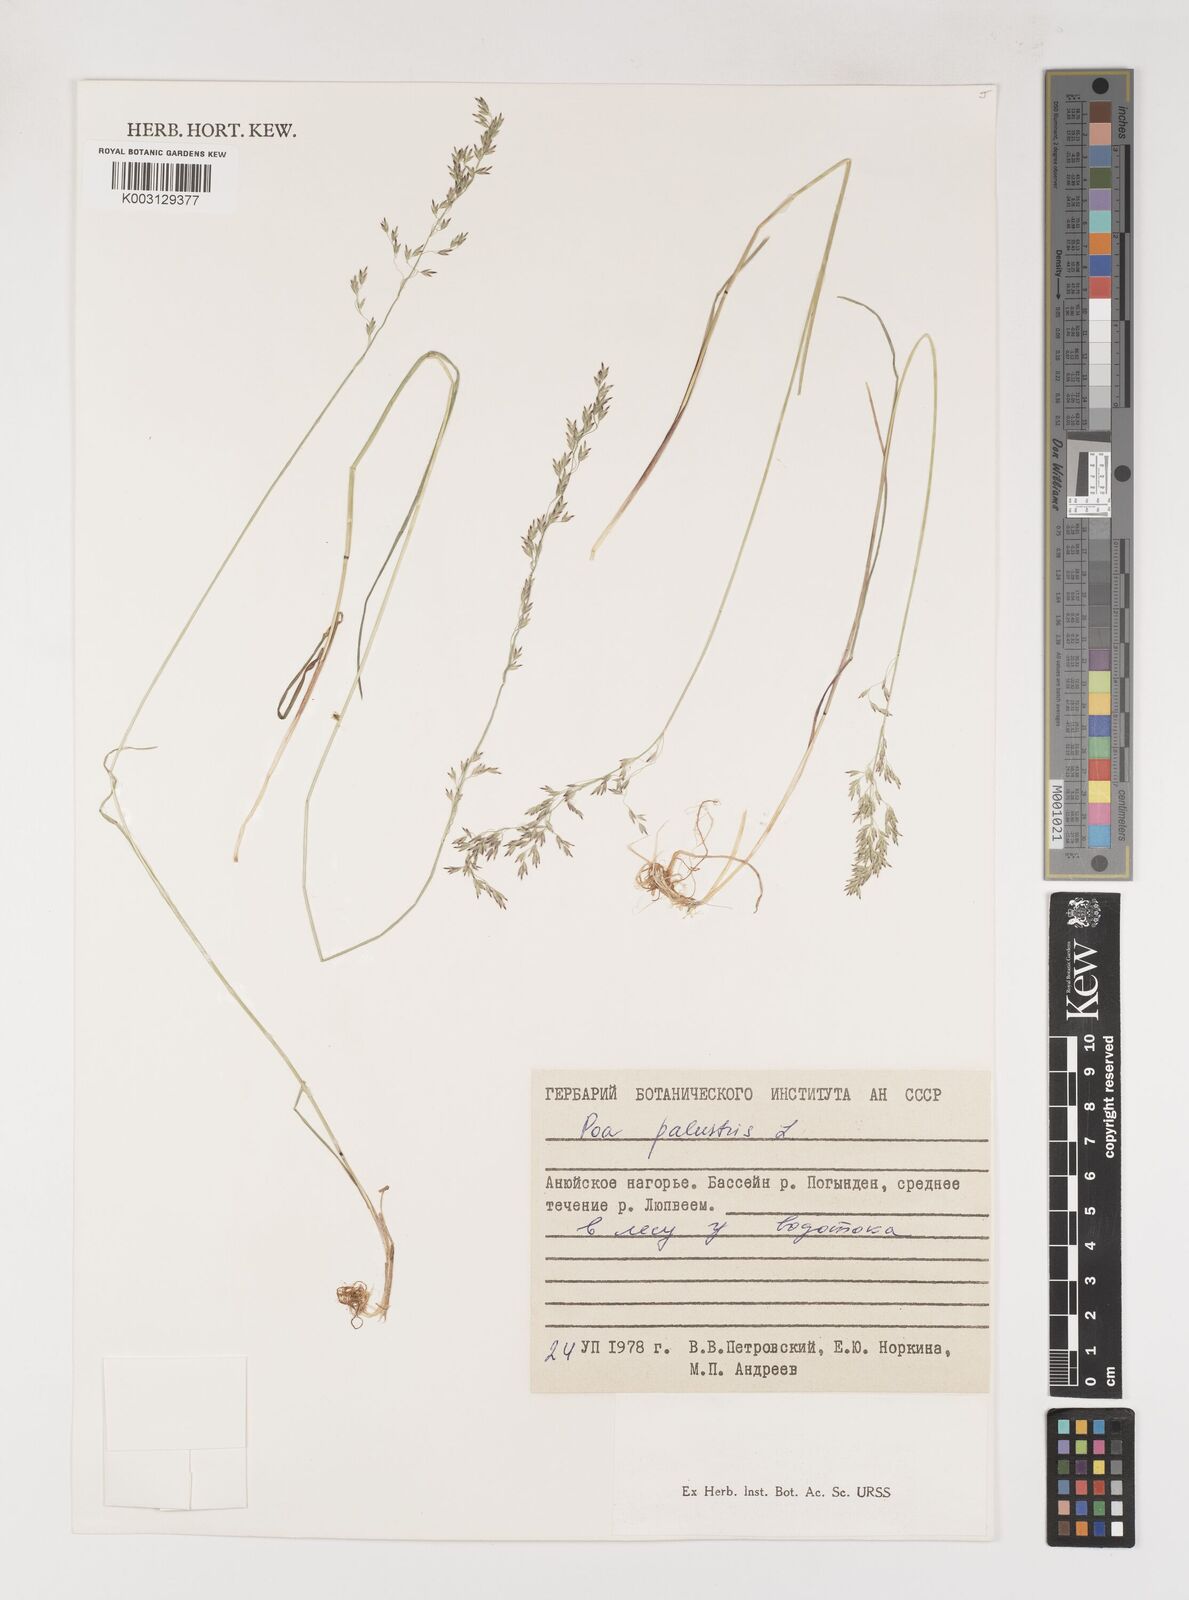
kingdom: Plantae
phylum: Tracheophyta
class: Liliopsida
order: Poales
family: Poaceae
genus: Poa
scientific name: Poa palustris
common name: Swamp meadow-grass
